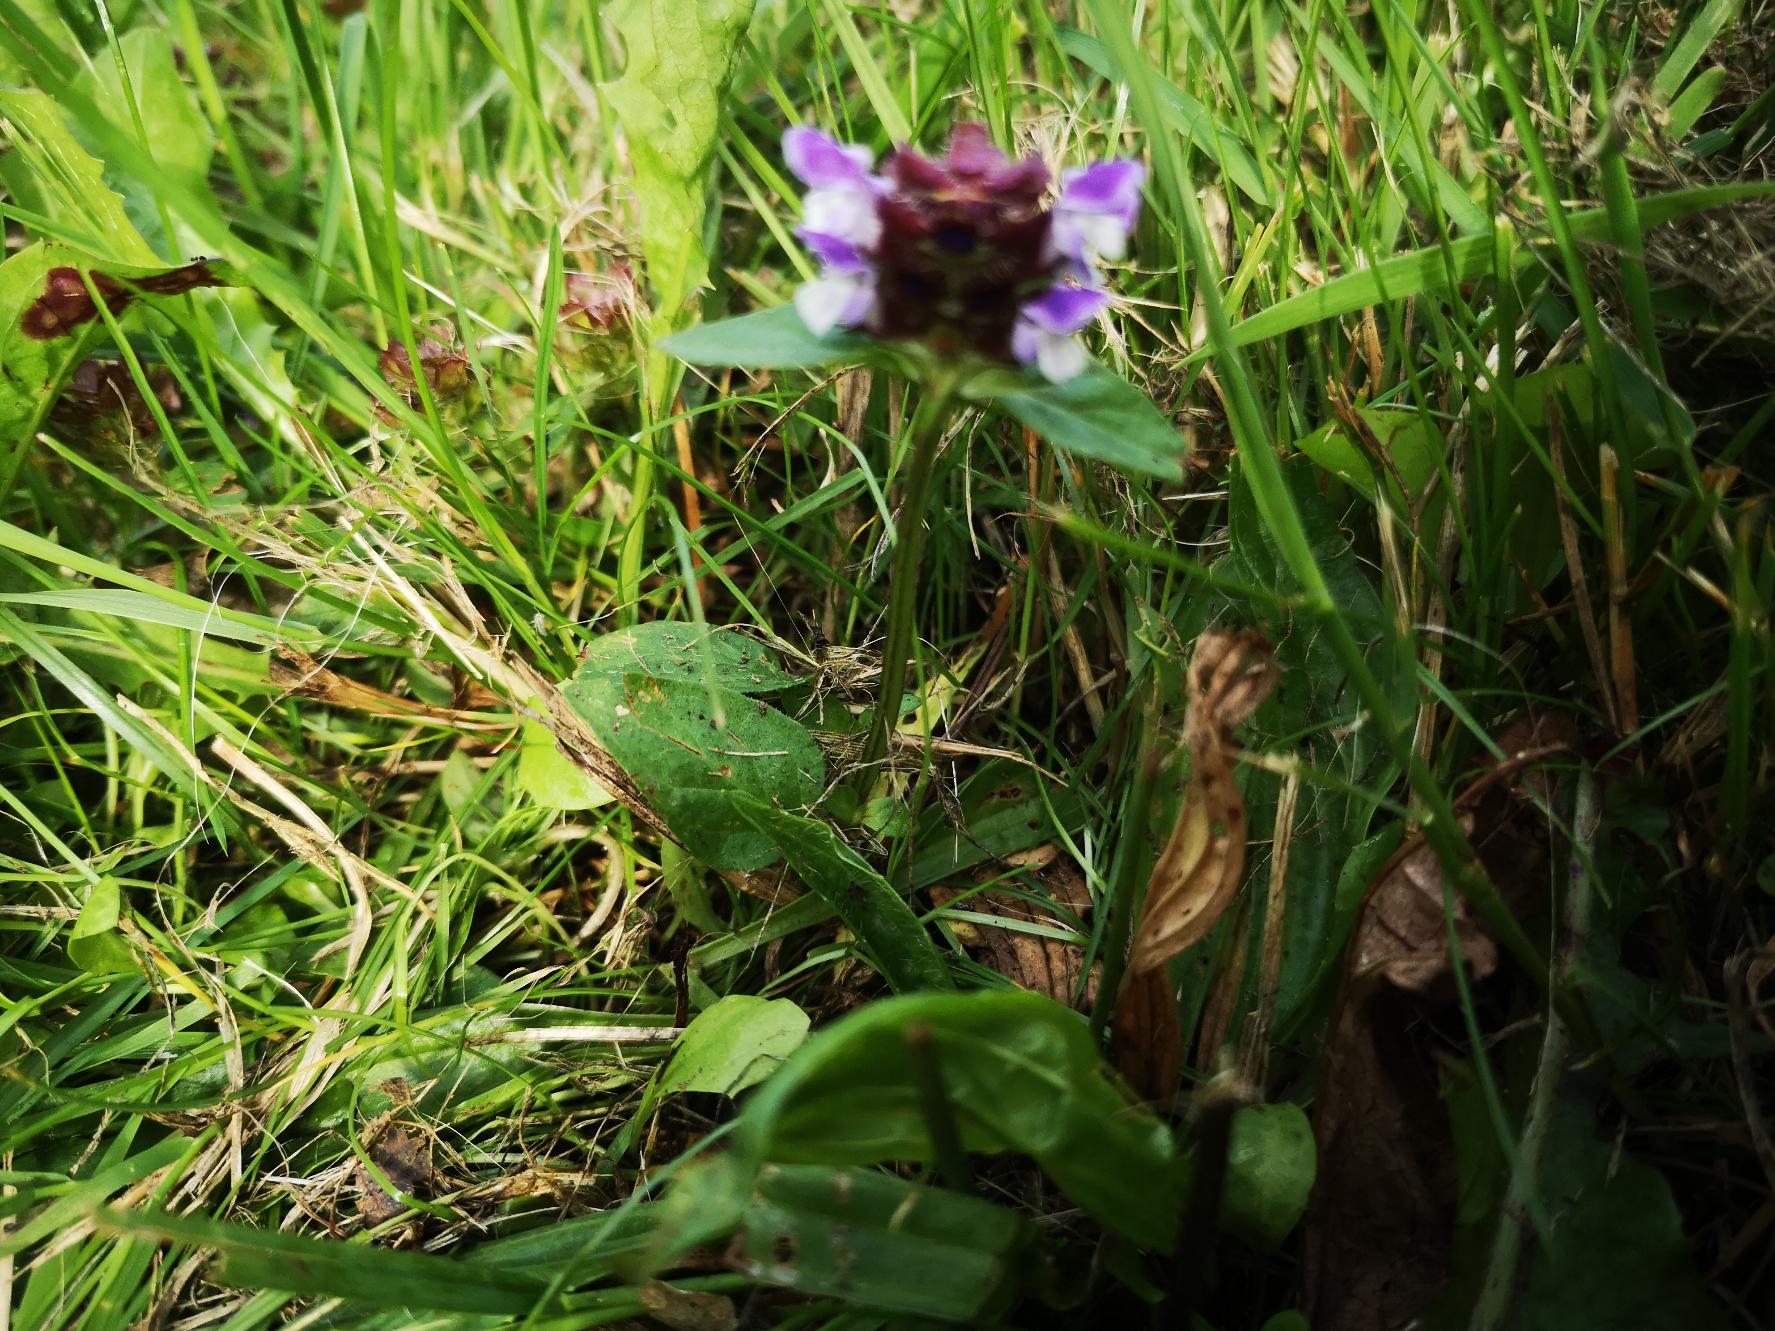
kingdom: Plantae
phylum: Tracheophyta
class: Magnoliopsida
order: Lamiales
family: Lamiaceae
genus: Prunella
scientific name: Prunella vulgaris
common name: Almindelig brunelle
